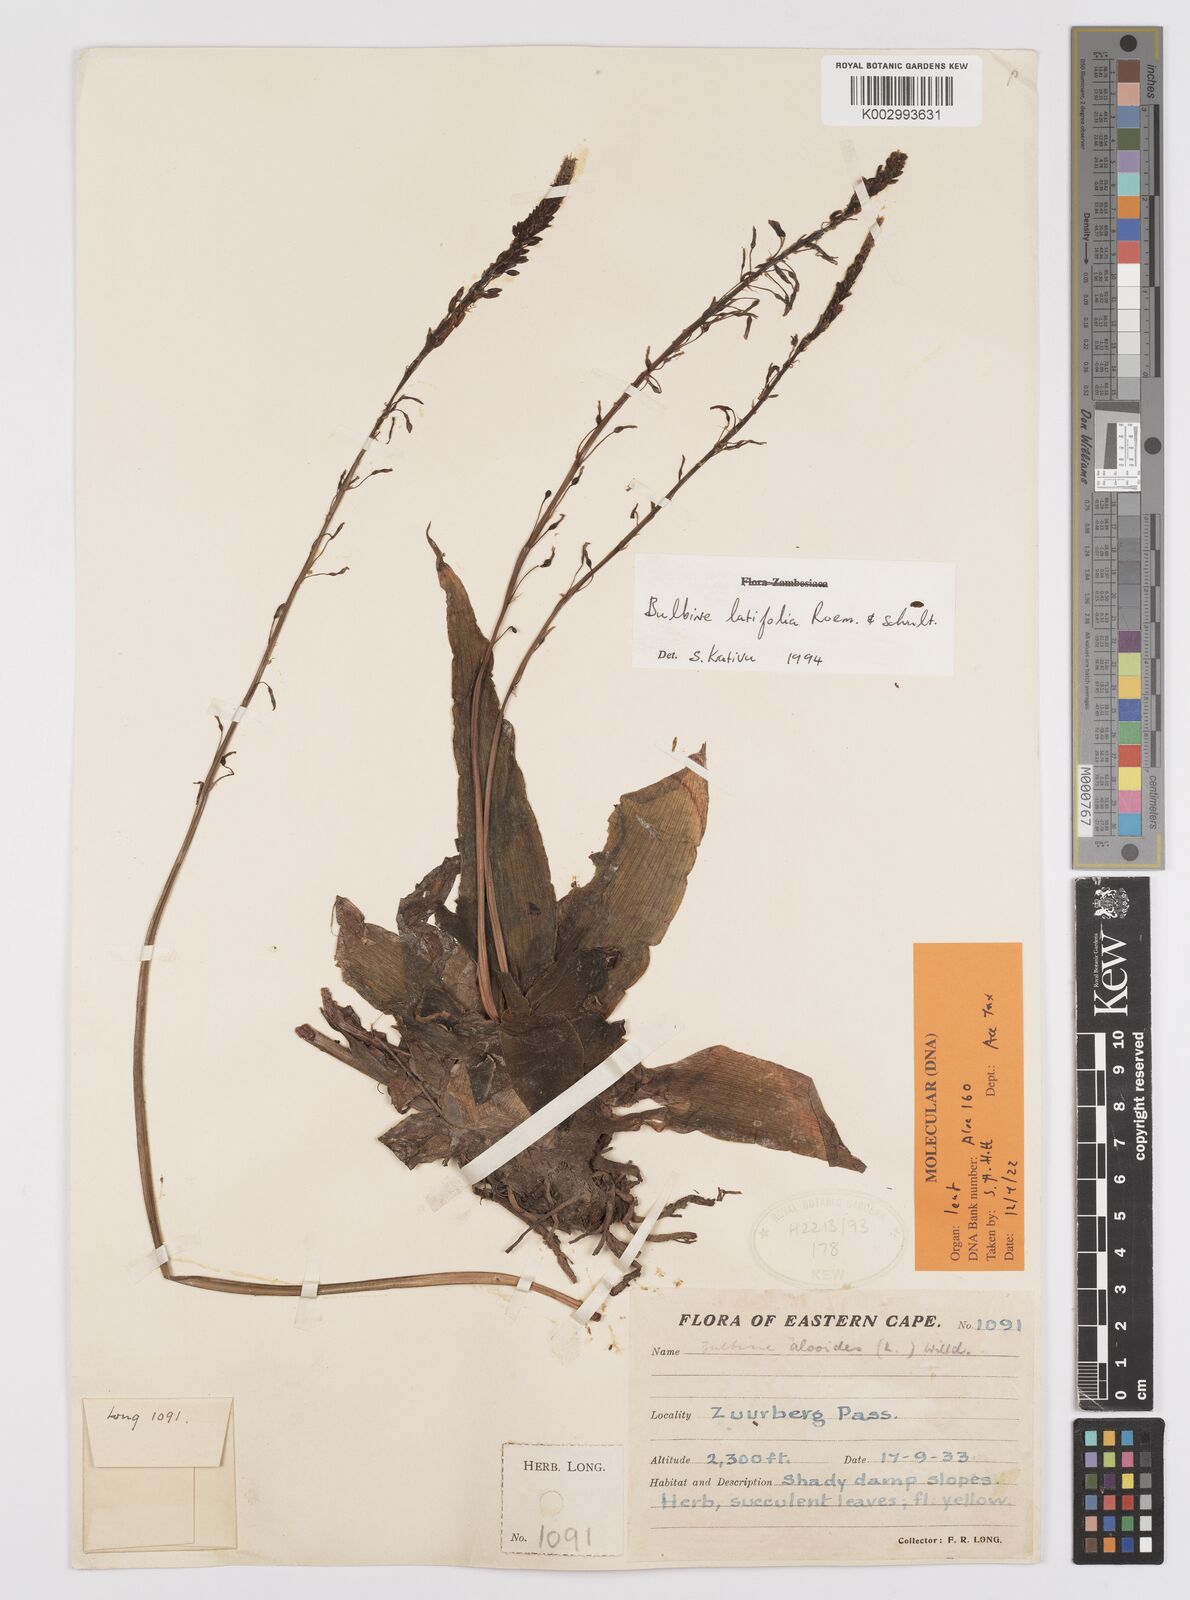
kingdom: Plantae
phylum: Tracheophyta
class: Liliopsida
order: Asparagales
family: Asphodelaceae
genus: Bulbine
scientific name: Bulbine latifolia
